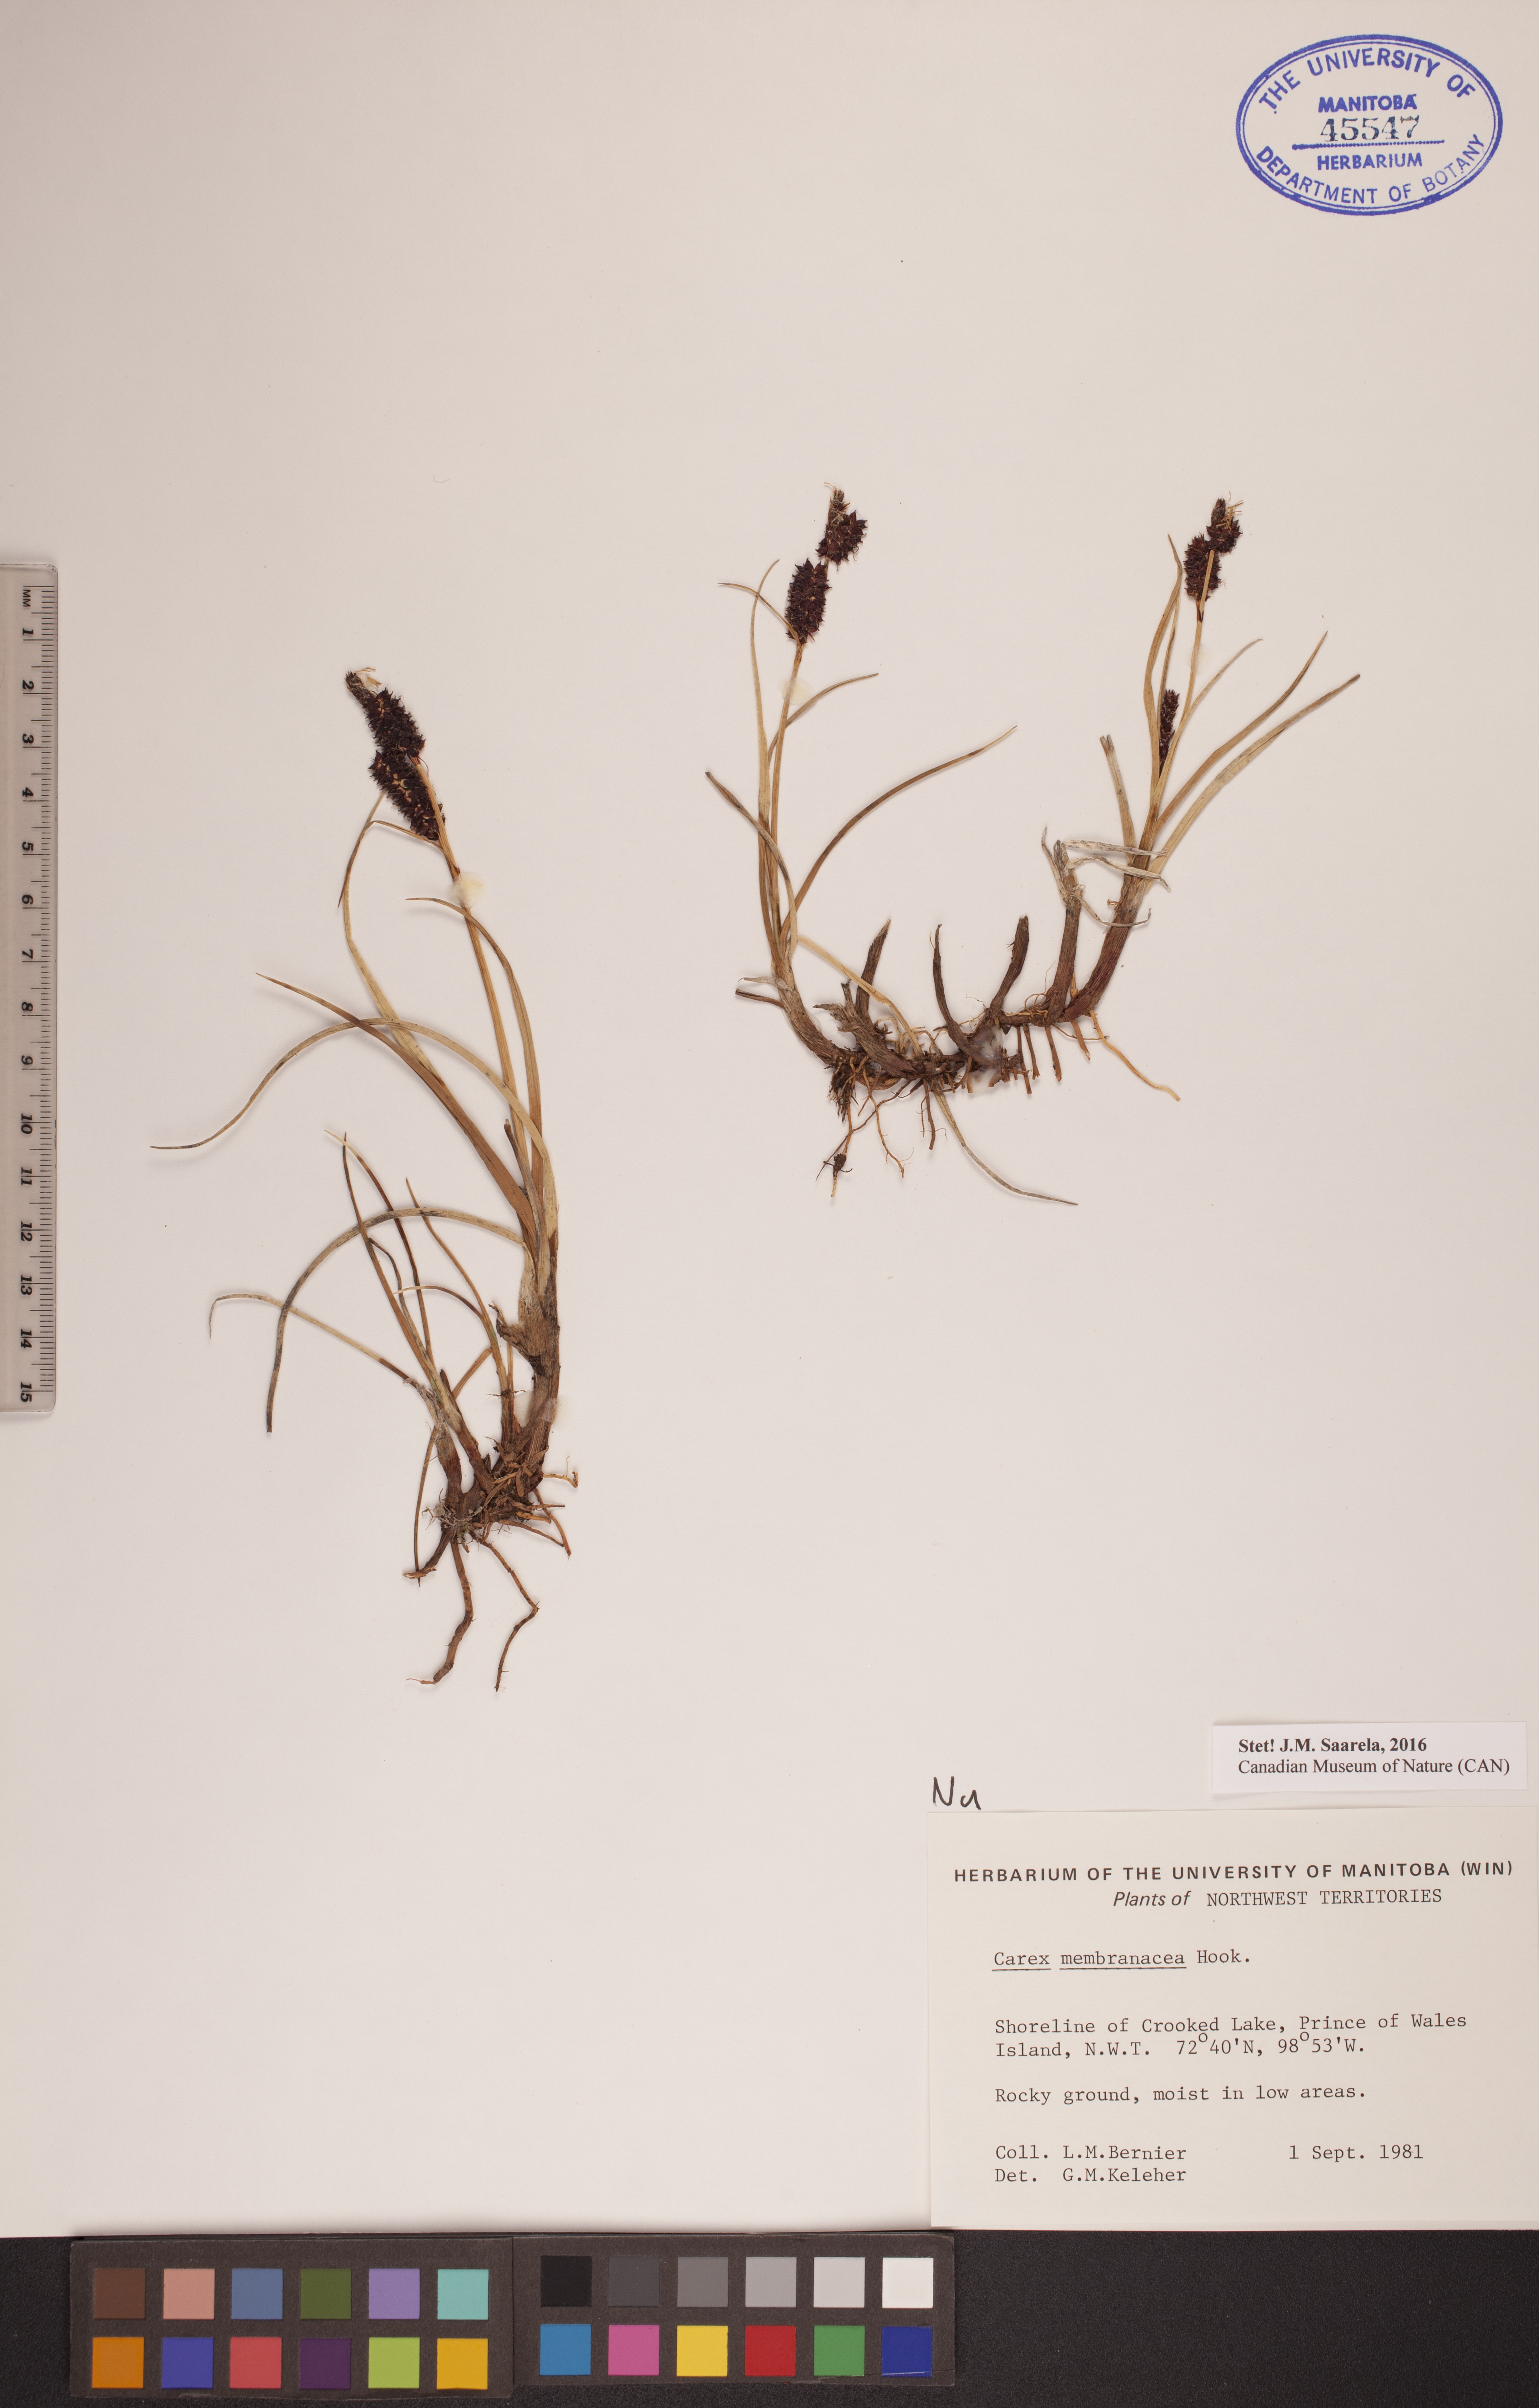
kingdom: Plantae
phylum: Tracheophyta
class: Liliopsida
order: Poales
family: Cyperaceae
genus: Carex
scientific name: Carex membranacea
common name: Fragile sedge
